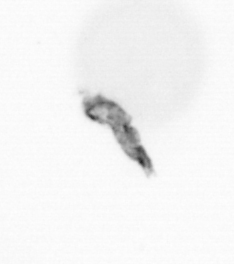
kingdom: Animalia
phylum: Arthropoda
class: Copepoda
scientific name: Copepoda
